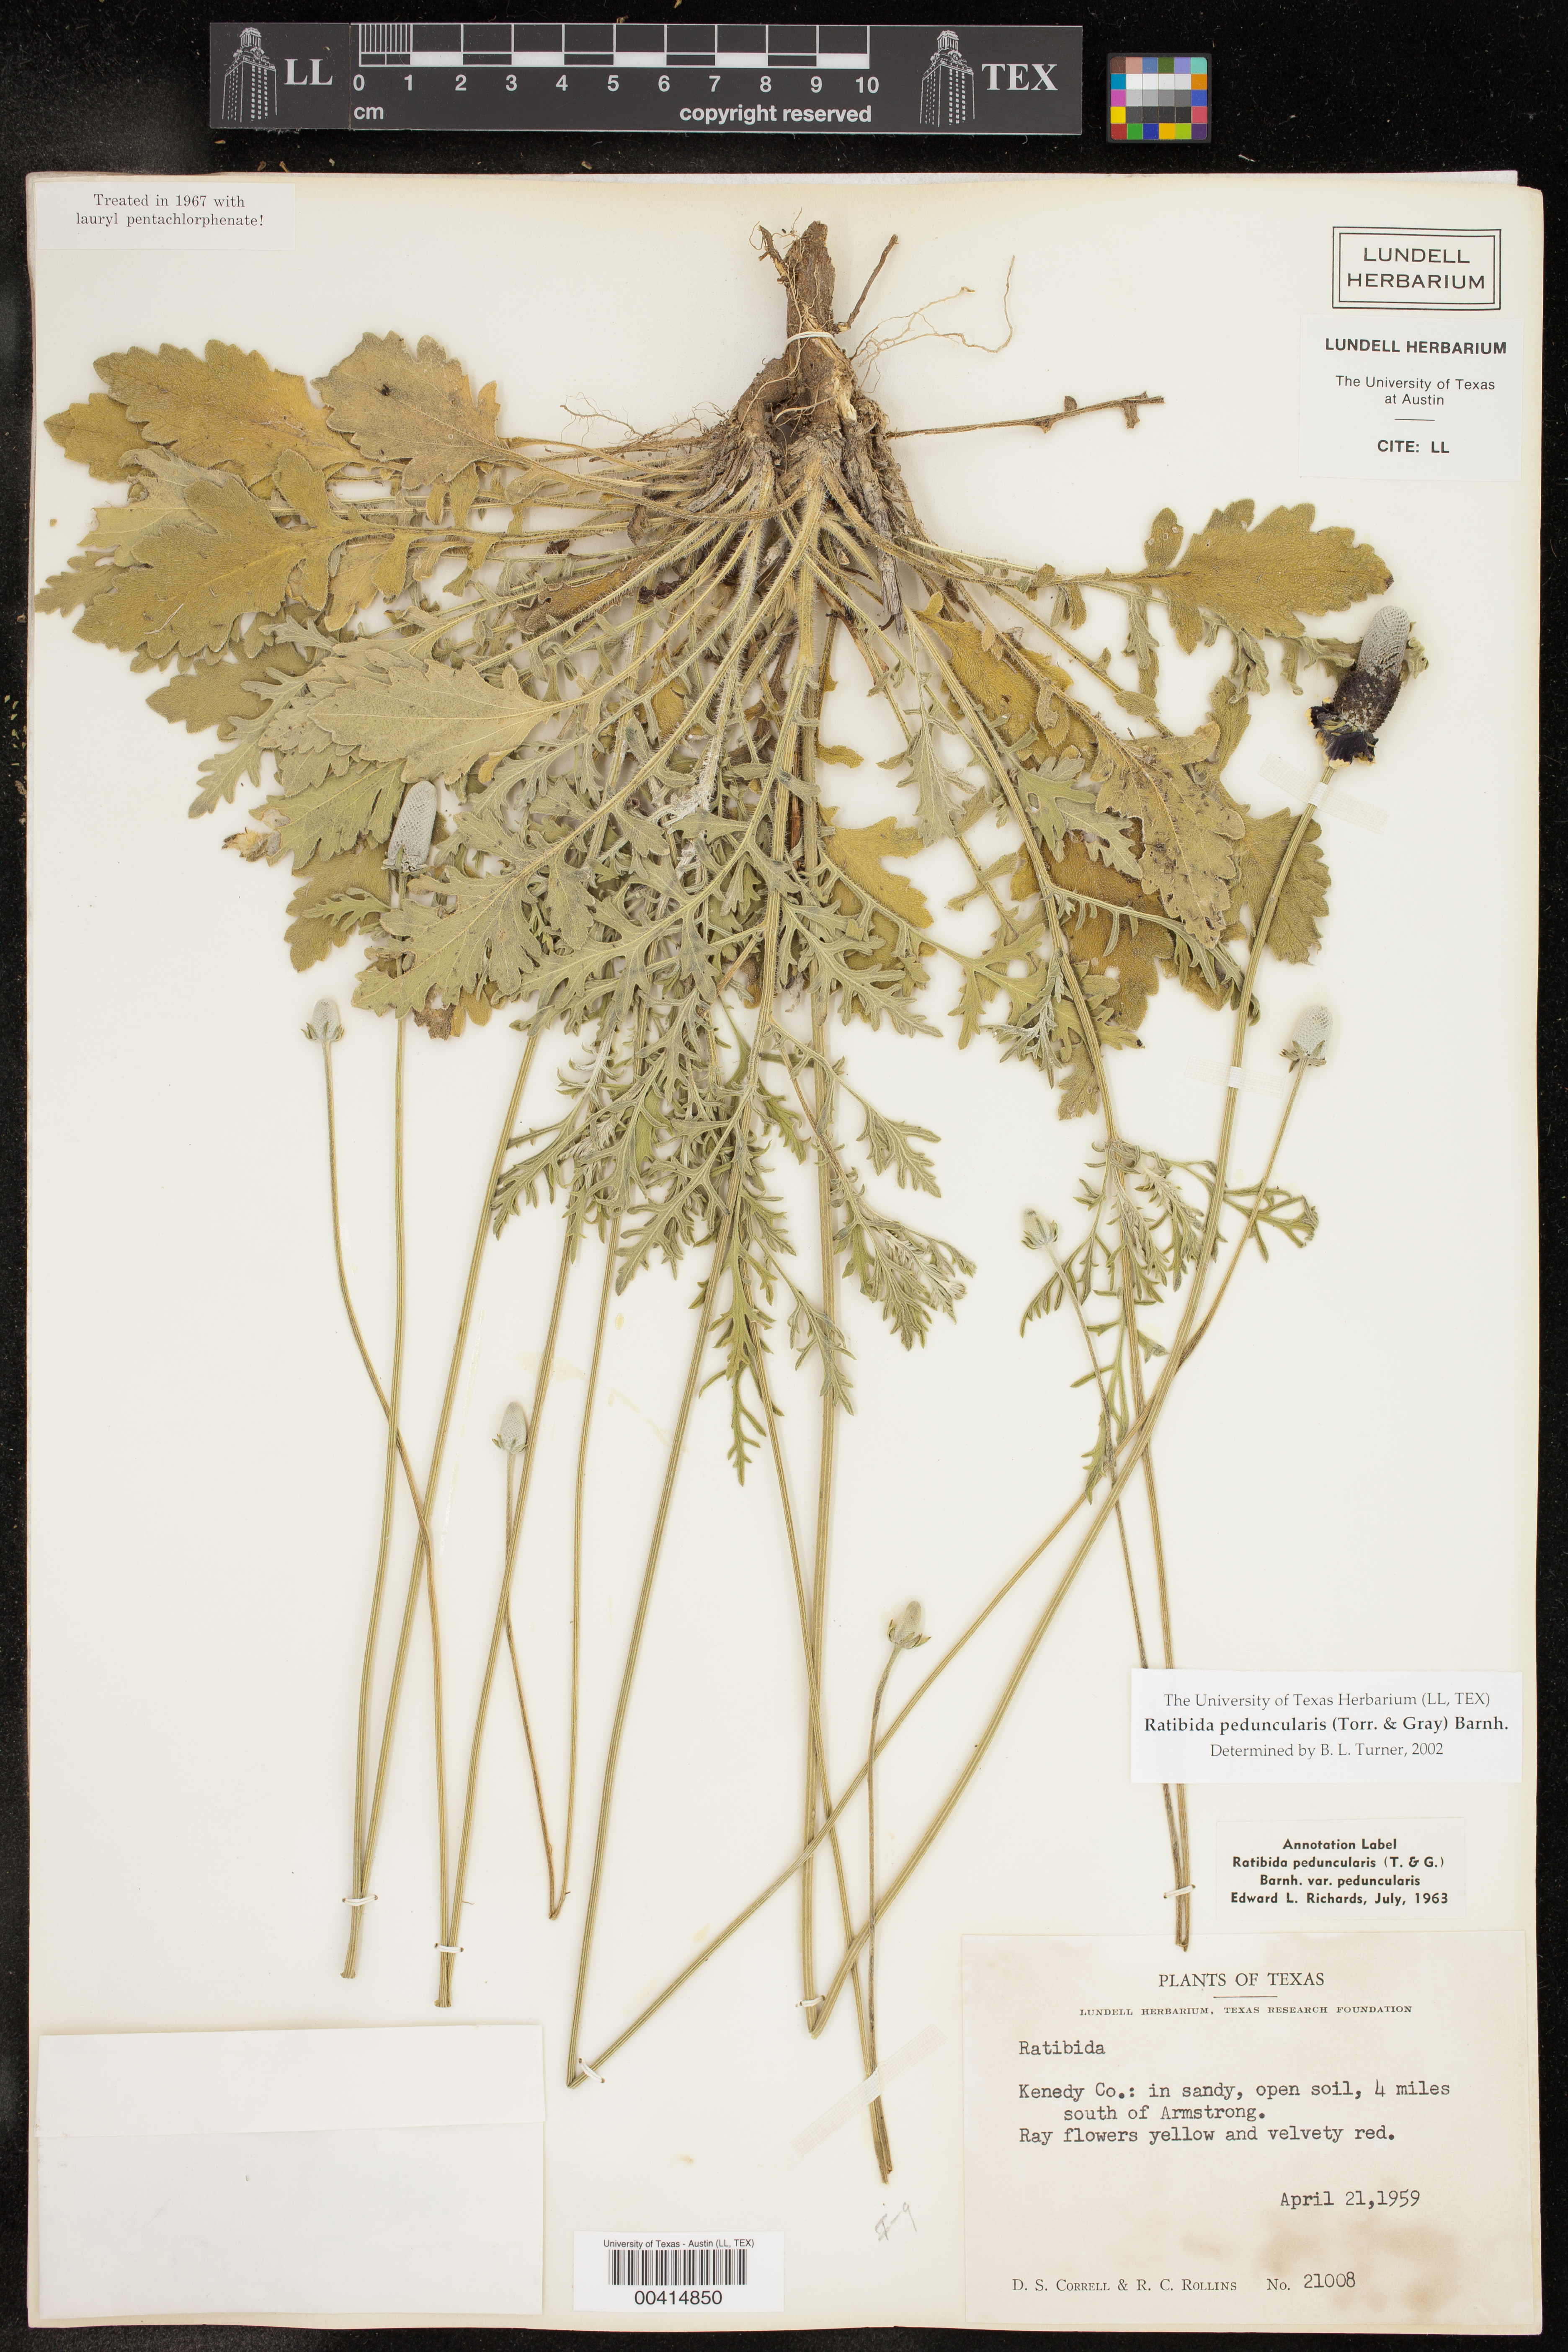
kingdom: Plantae
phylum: Tracheophyta
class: Magnoliopsida
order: Asterales
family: Asteraceae
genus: Ratibida
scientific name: Ratibida peduncularis
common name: Naked prairie-coneflower
